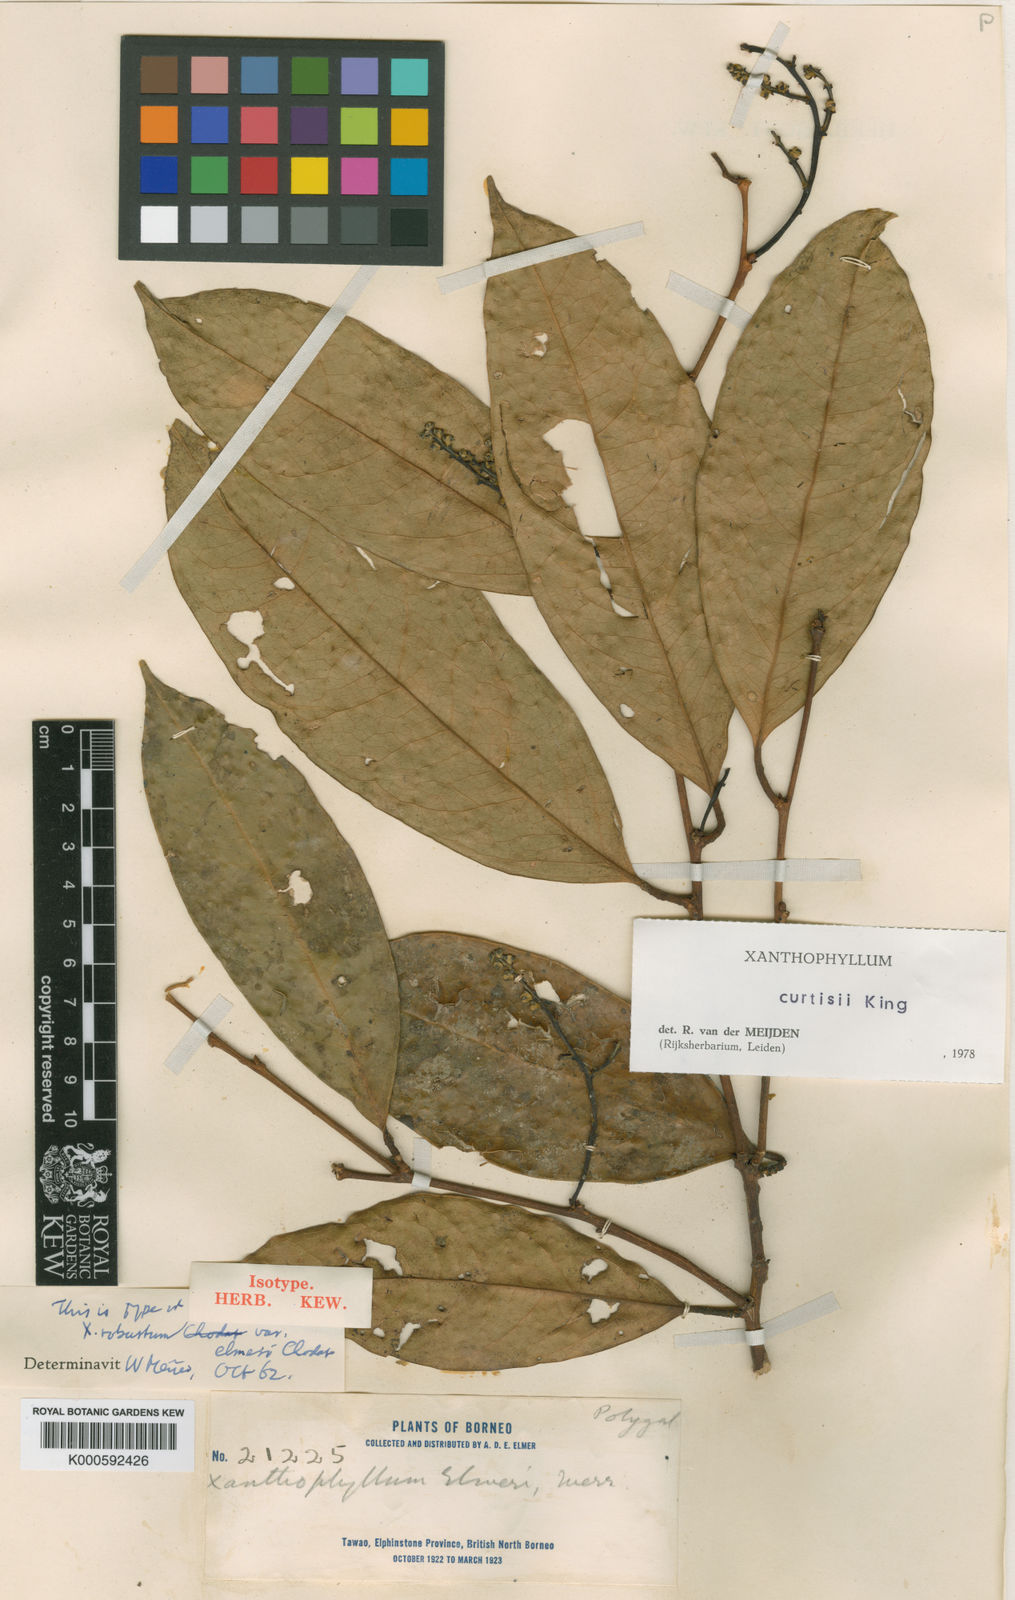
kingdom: Plantae
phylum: Tracheophyta
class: Magnoliopsida
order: Fabales
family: Polygalaceae
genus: Xanthophyllum
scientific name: Xanthophyllum vitellinum
